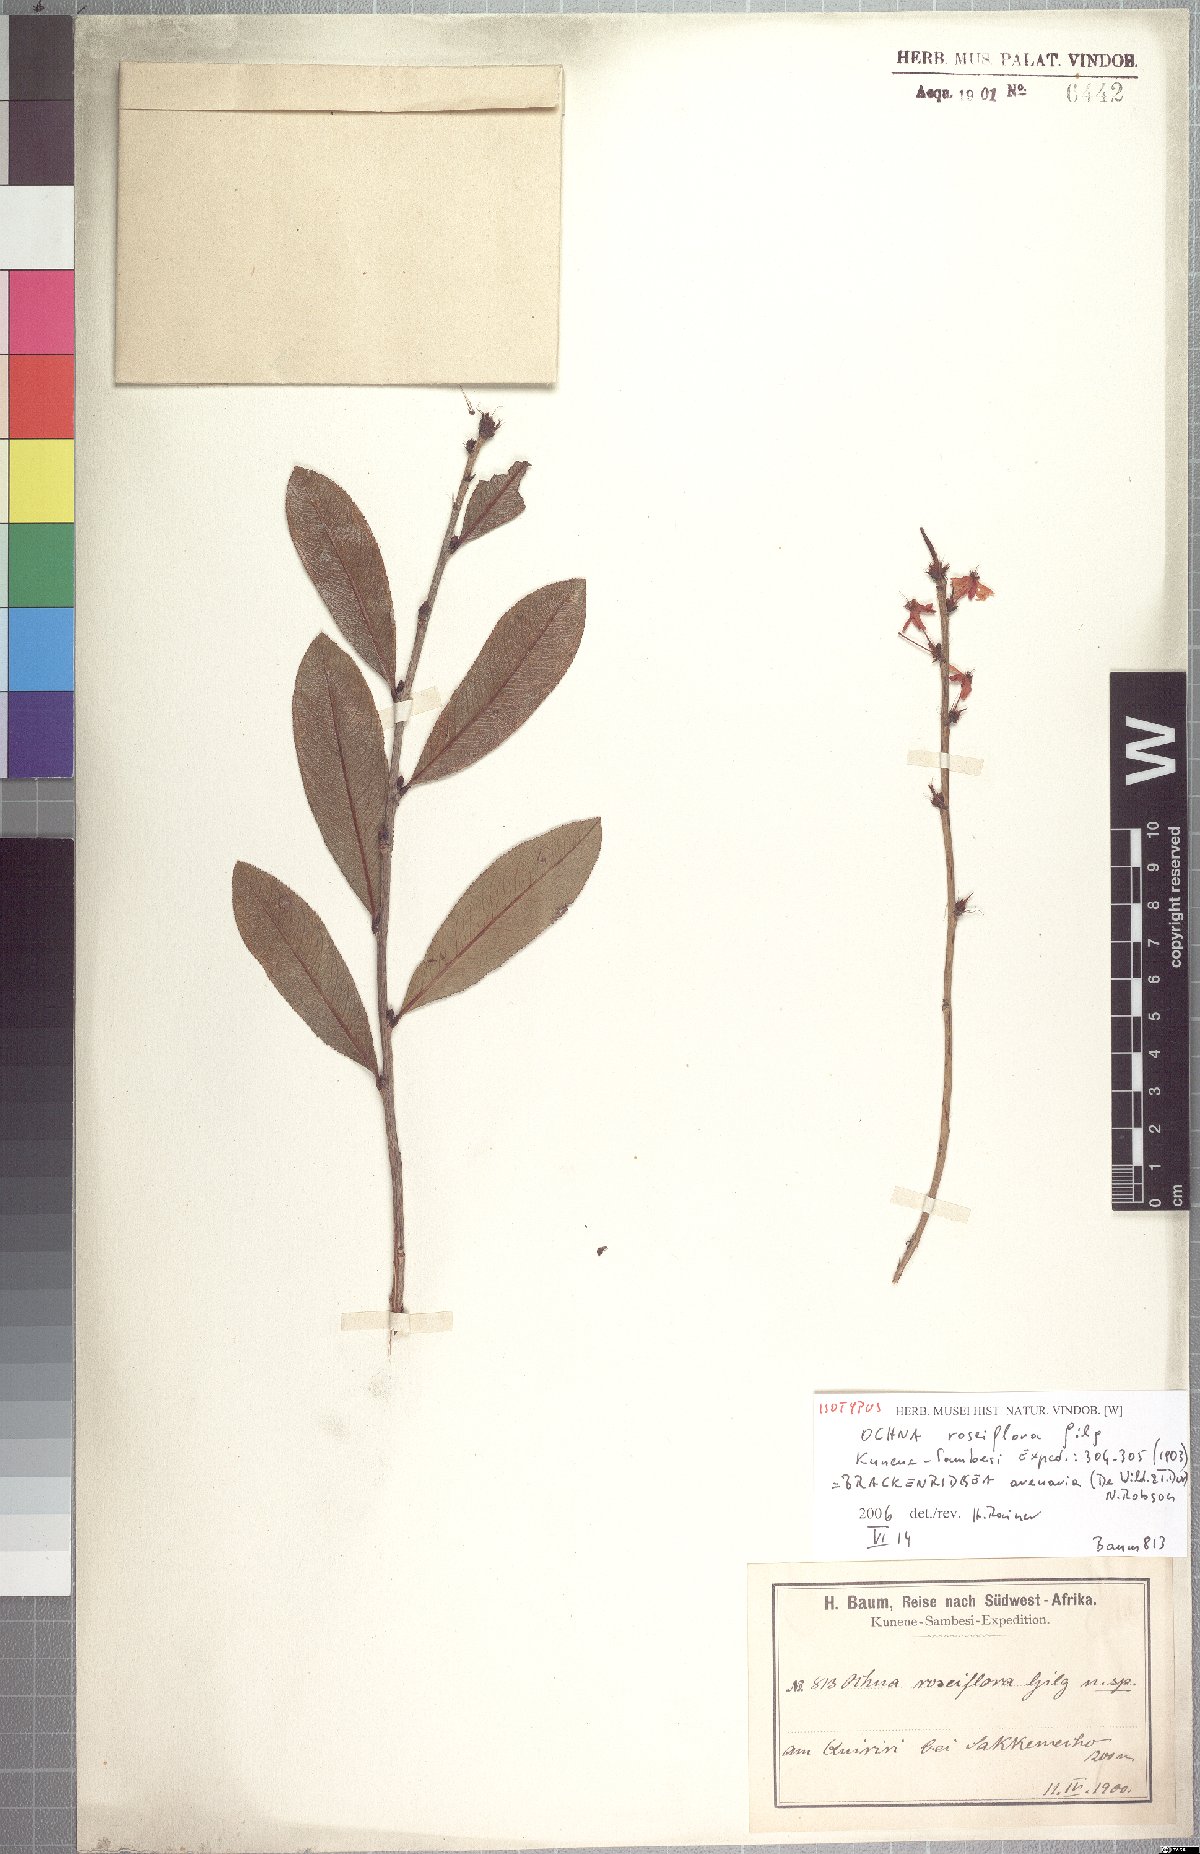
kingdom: Plantae
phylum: Tracheophyta
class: Magnoliopsida
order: Malpighiales
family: Ochnaceae
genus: Ochna
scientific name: Ochna arenaria
